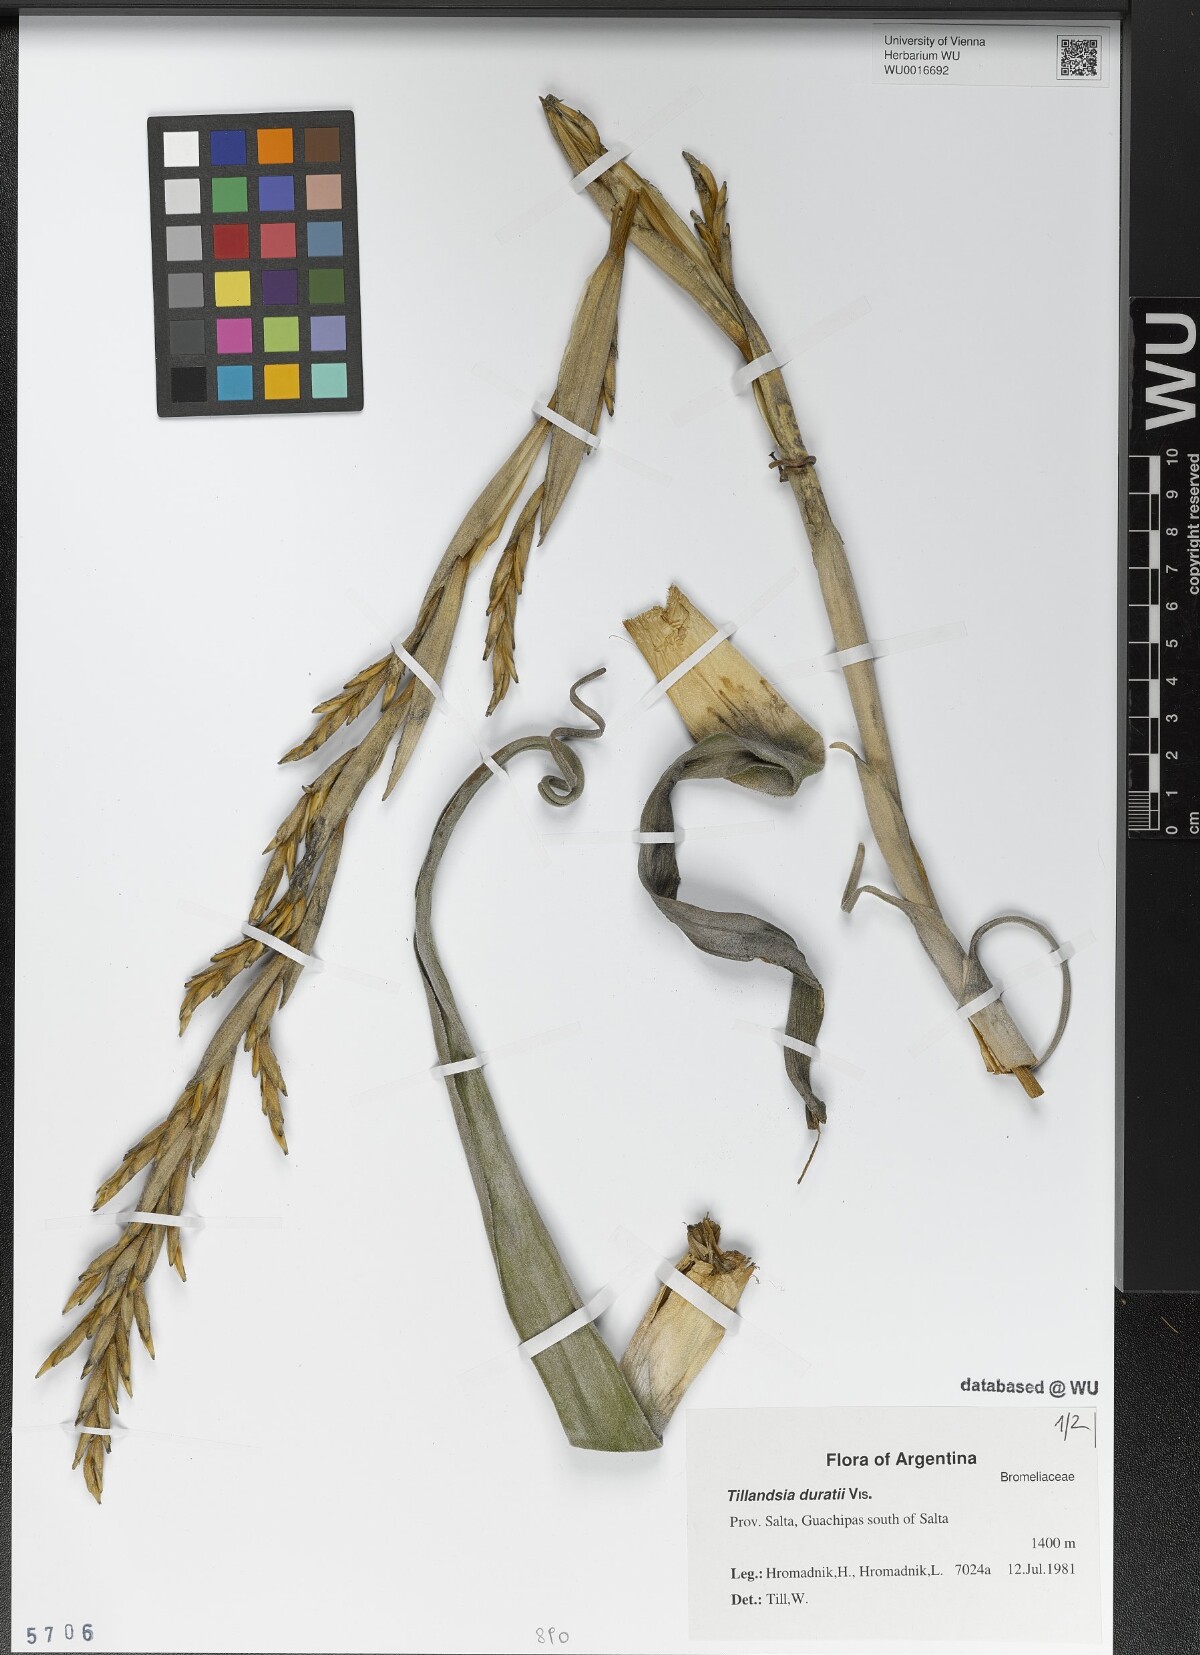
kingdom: Plantae
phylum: Tracheophyta
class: Liliopsida
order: Poales
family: Bromeliaceae
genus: Tillandsia
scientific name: Tillandsia duratii
